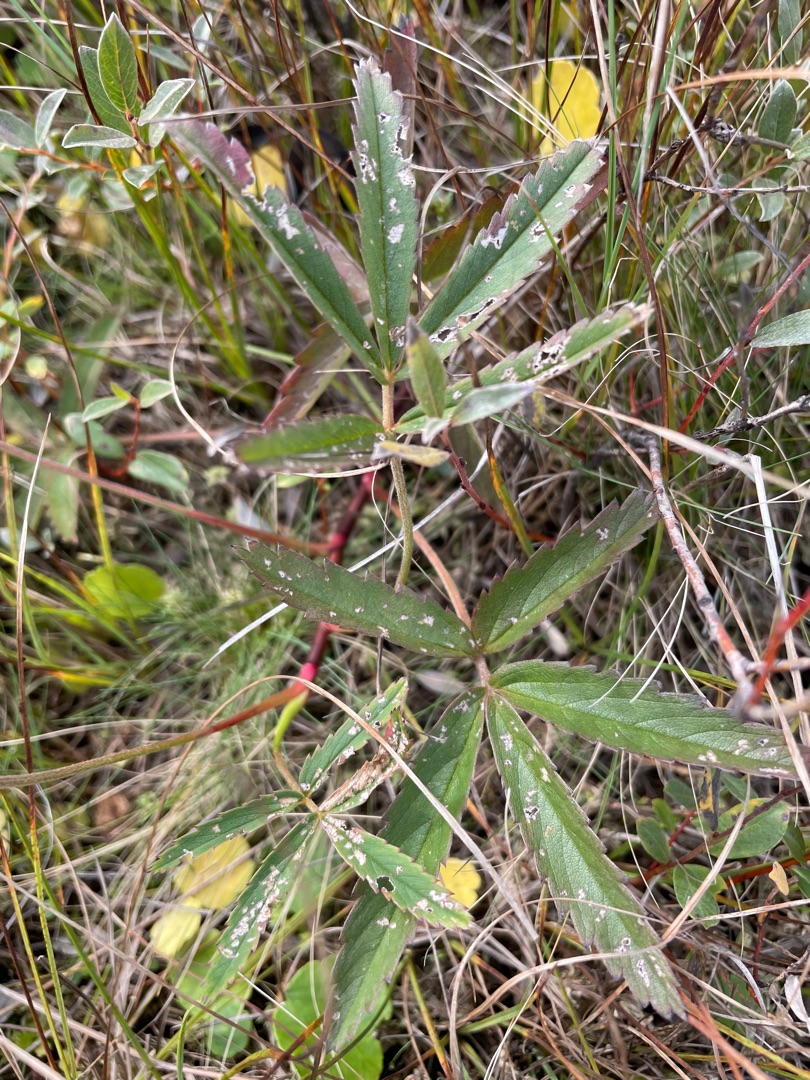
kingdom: Plantae
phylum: Tracheophyta
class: Magnoliopsida
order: Rosales
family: Rosaceae
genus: Comarum
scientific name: Comarum palustre
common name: Kragefod
